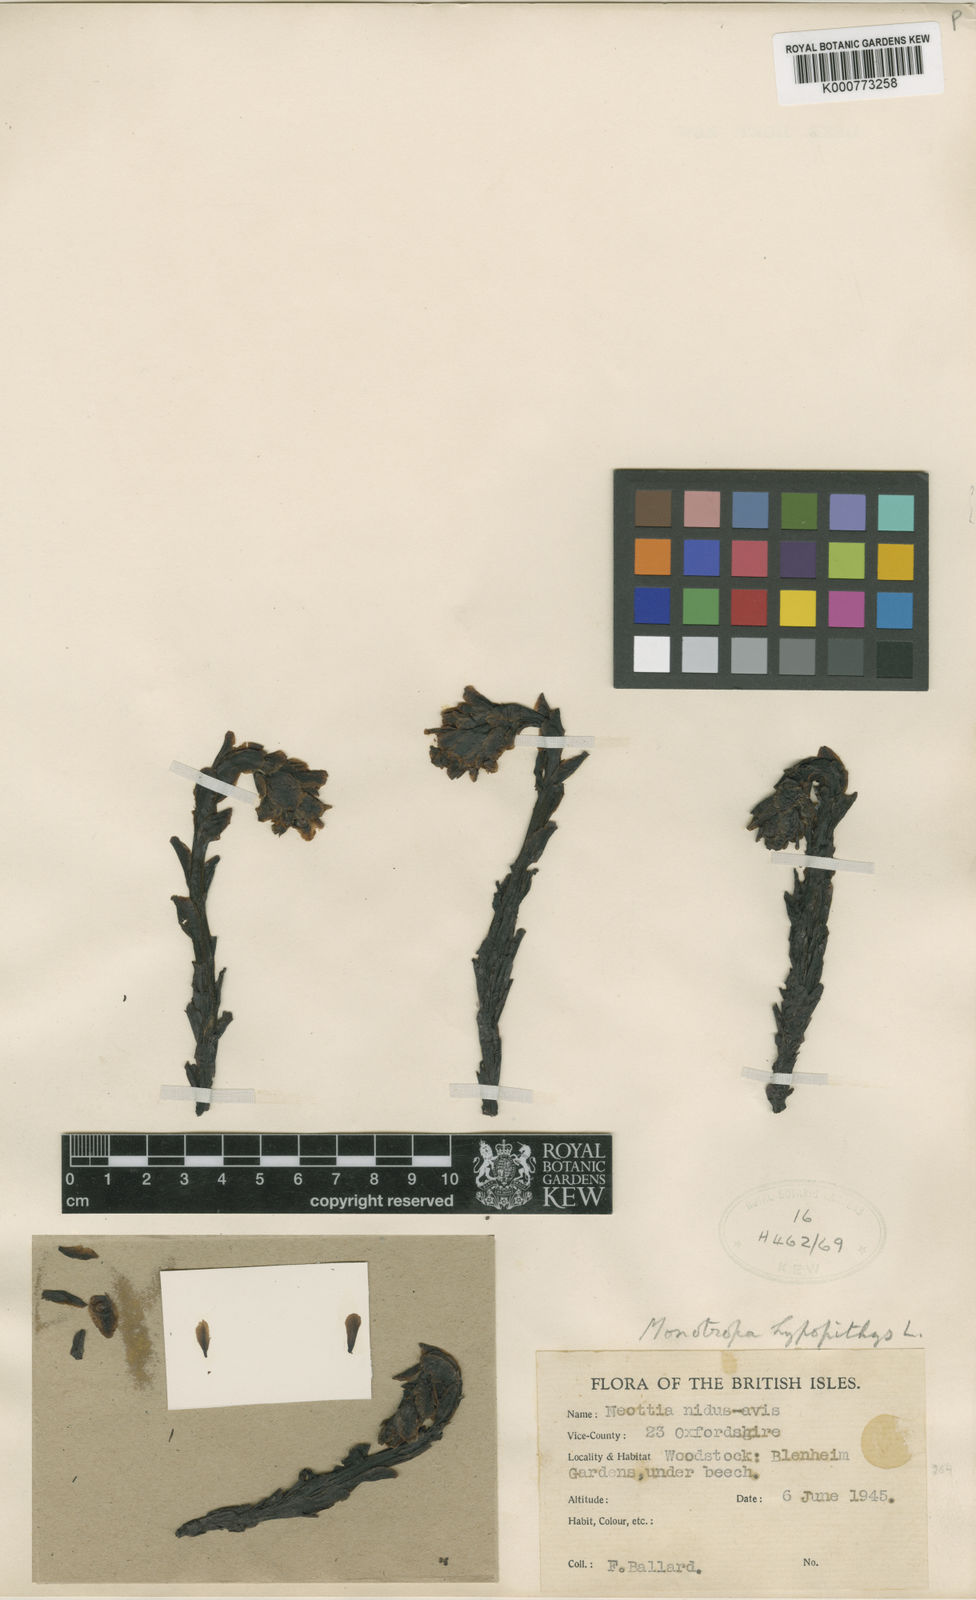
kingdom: Plantae
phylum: Tracheophyta
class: Magnoliopsida
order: Ericales
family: Ericaceae
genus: Monotropa
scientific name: Monotropa
